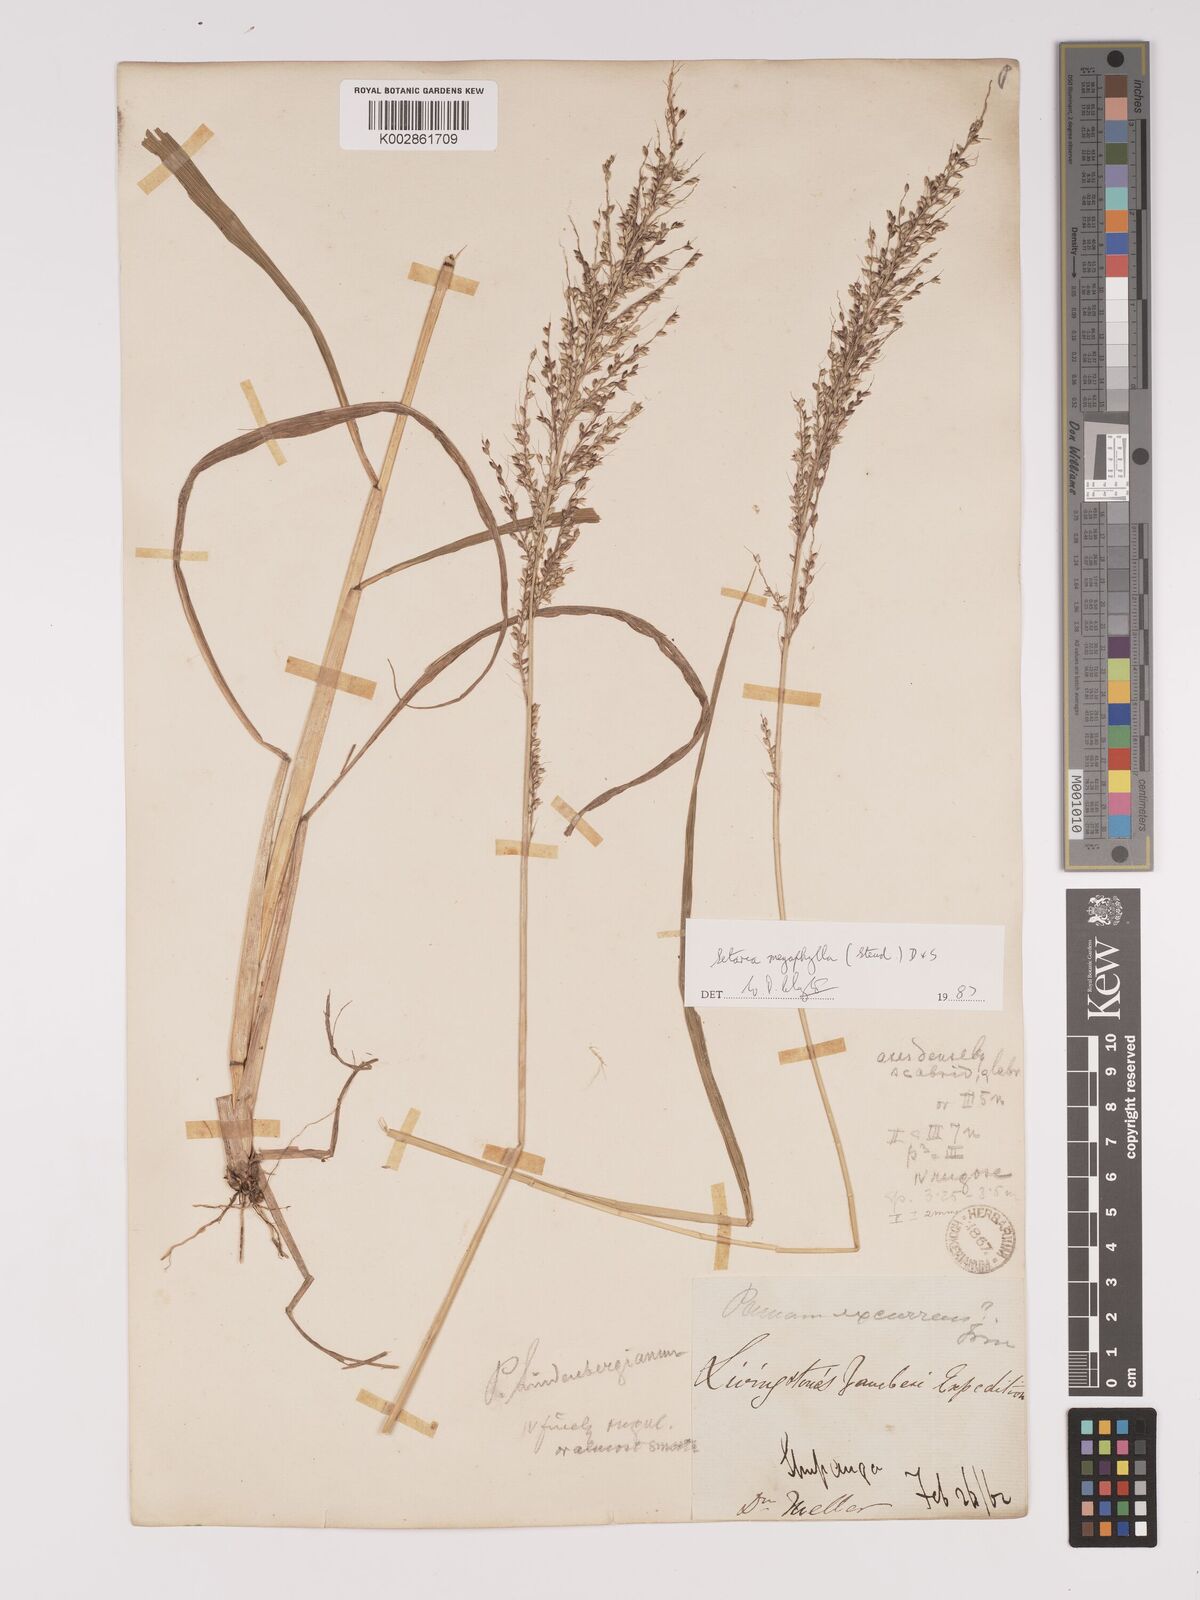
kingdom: Plantae
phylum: Tracheophyta
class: Liliopsida
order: Poales
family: Poaceae
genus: Setaria
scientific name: Setaria megaphylla
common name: Bigleaf bristlegrass
